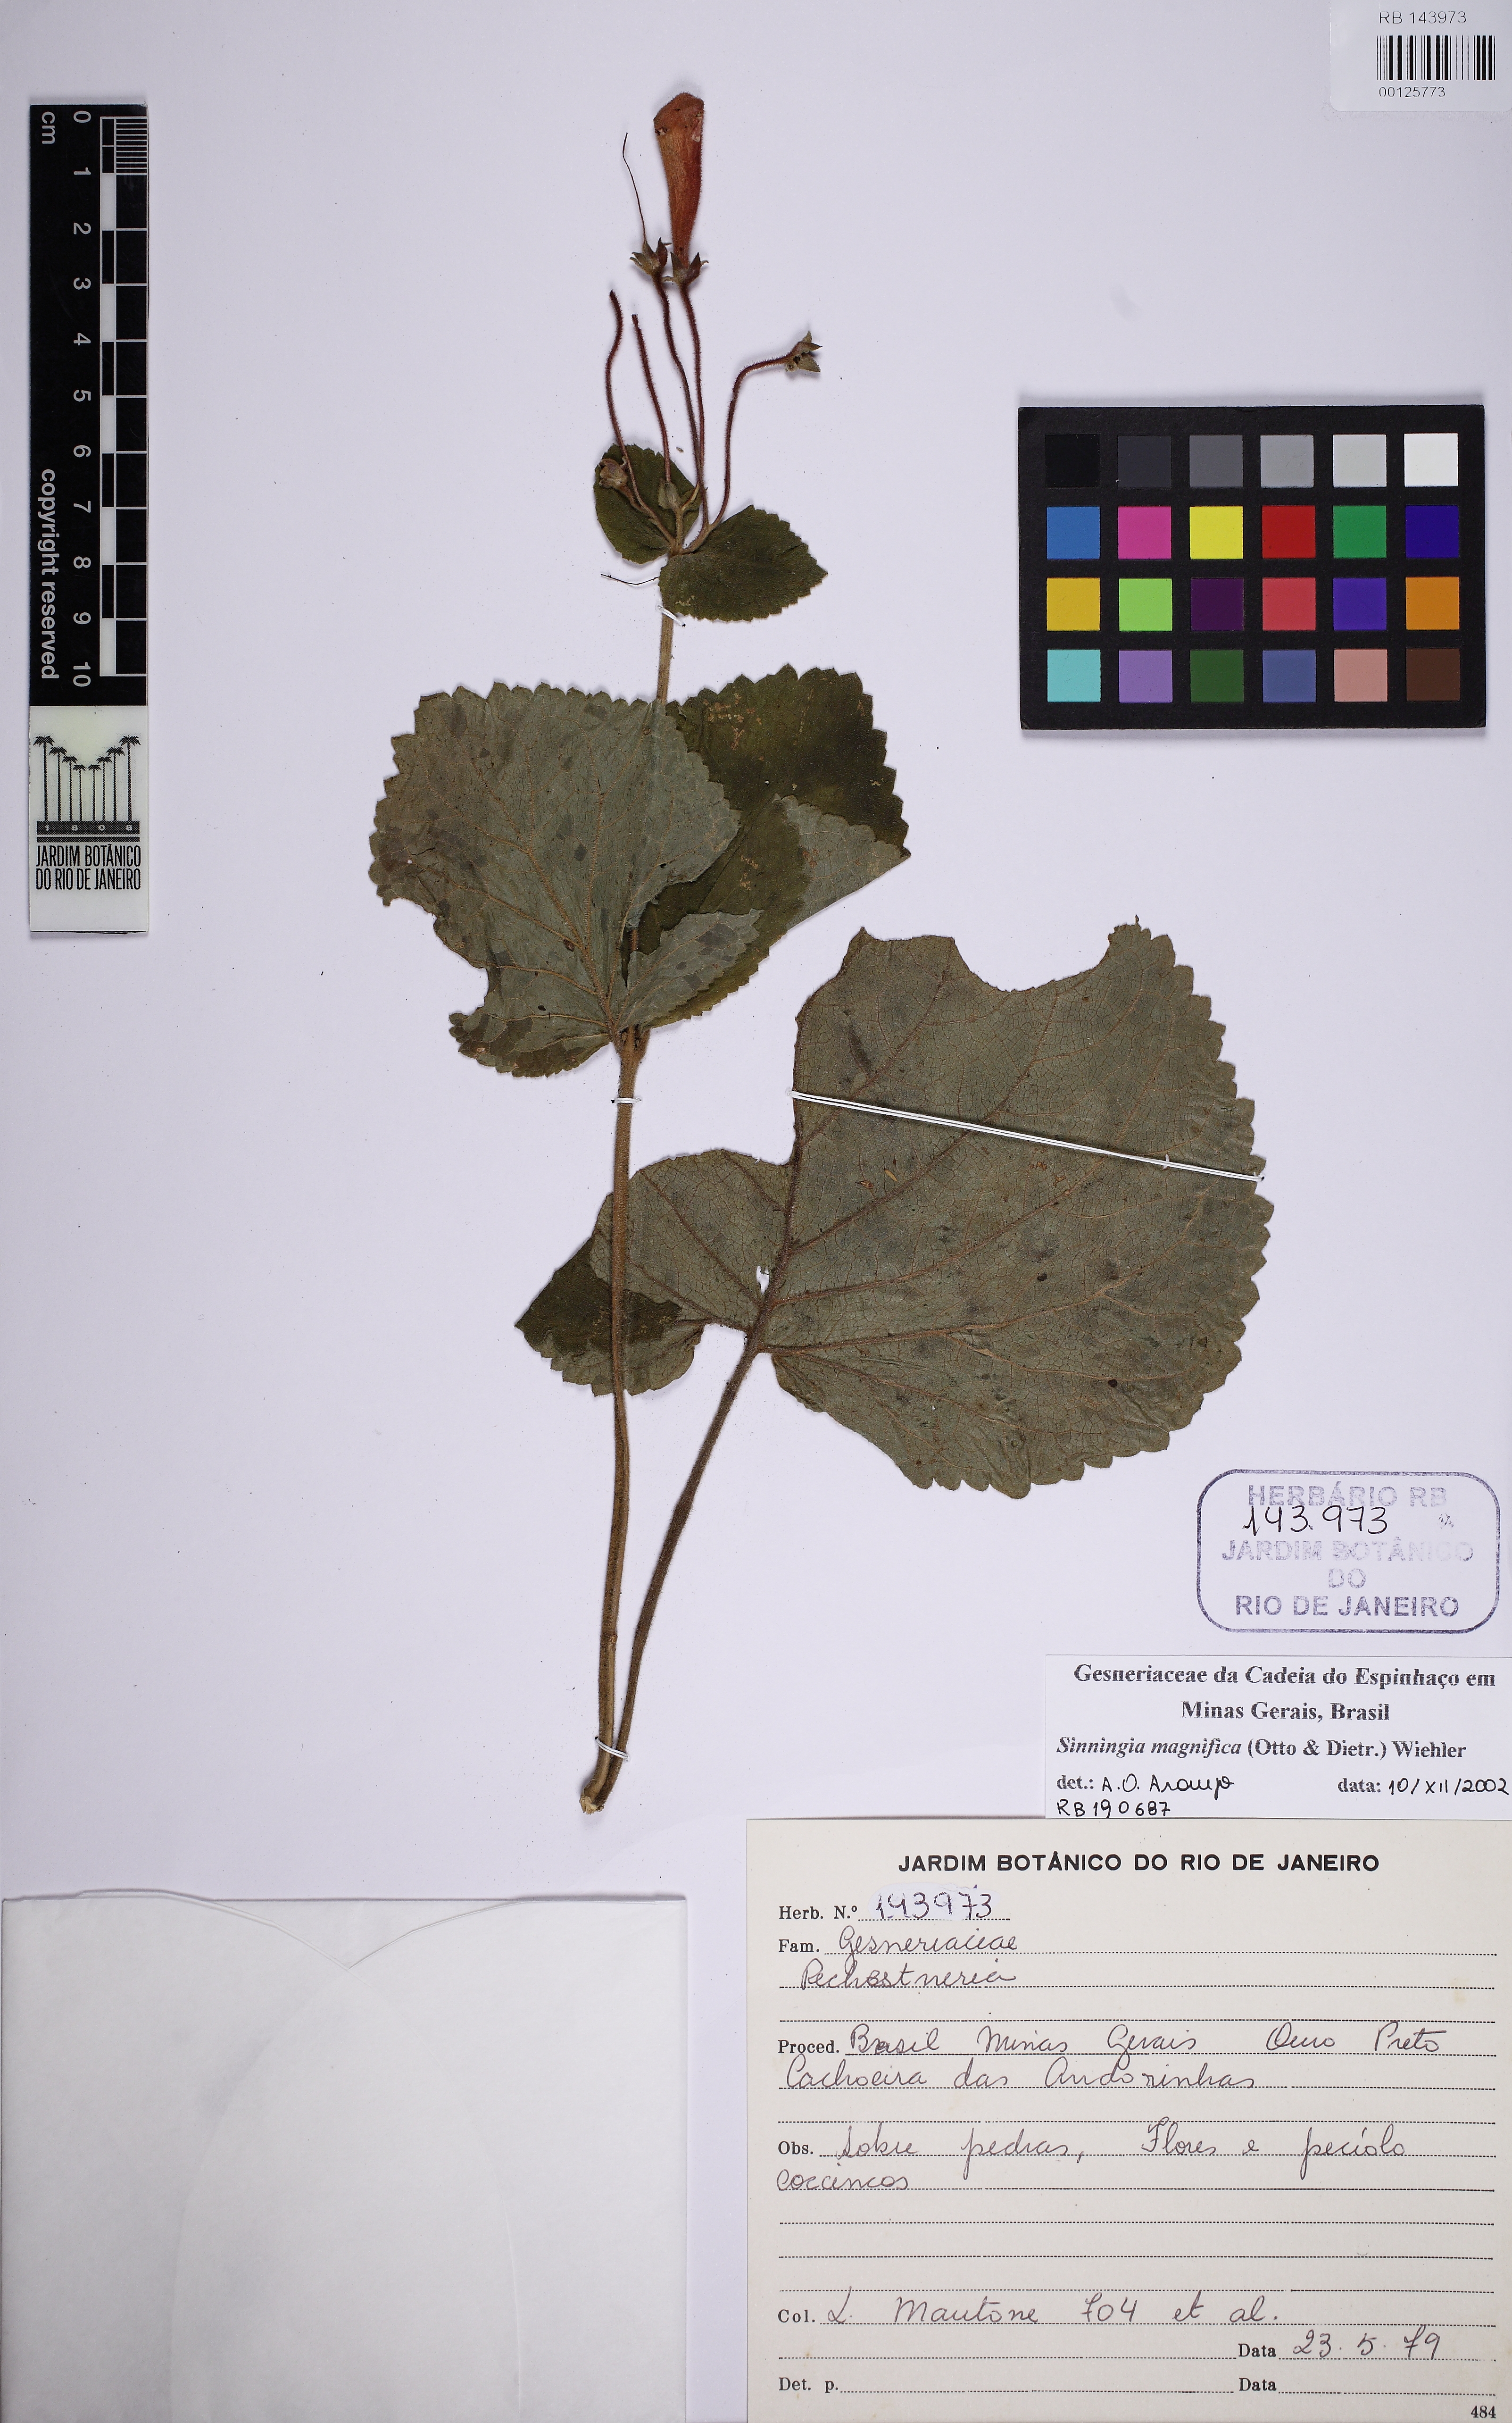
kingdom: Plantae
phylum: Tracheophyta
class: Magnoliopsida
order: Lamiales
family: Gesneriaceae
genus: Sinningia
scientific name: Sinningia magnifica
